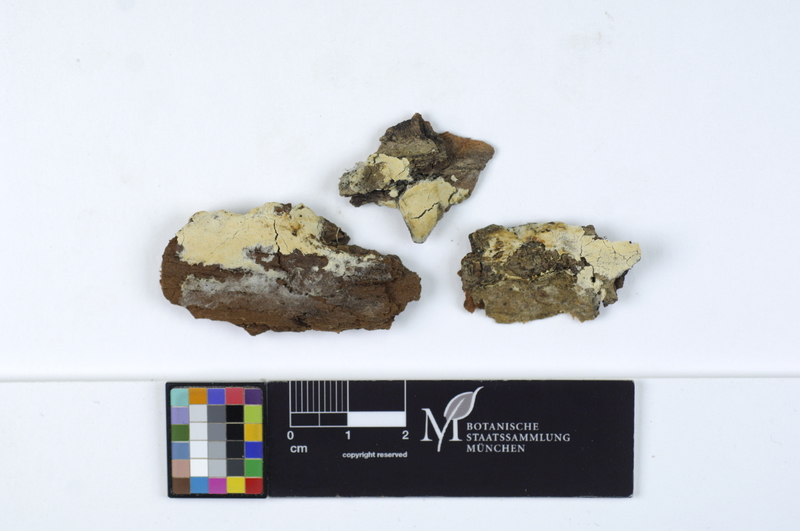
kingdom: Fungi
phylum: Basidiomycota
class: Agaricomycetes
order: Corticiales
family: Corticiaceae
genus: Erythricium
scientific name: Erythricium laetum
